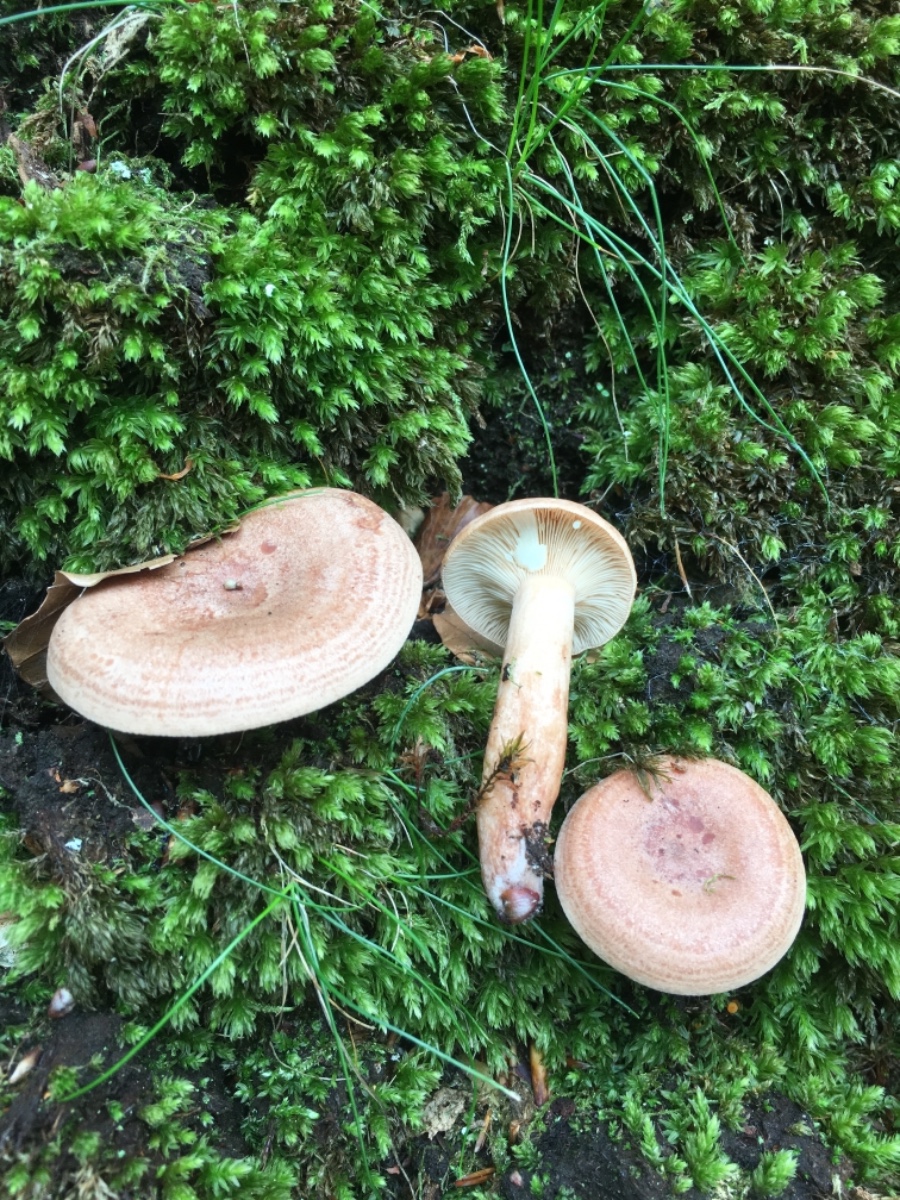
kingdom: Fungi
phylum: Basidiomycota
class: Agaricomycetes
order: Russulales
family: Russulaceae
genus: Lactarius
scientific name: Lactarius quietus
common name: ege-mælkehat
